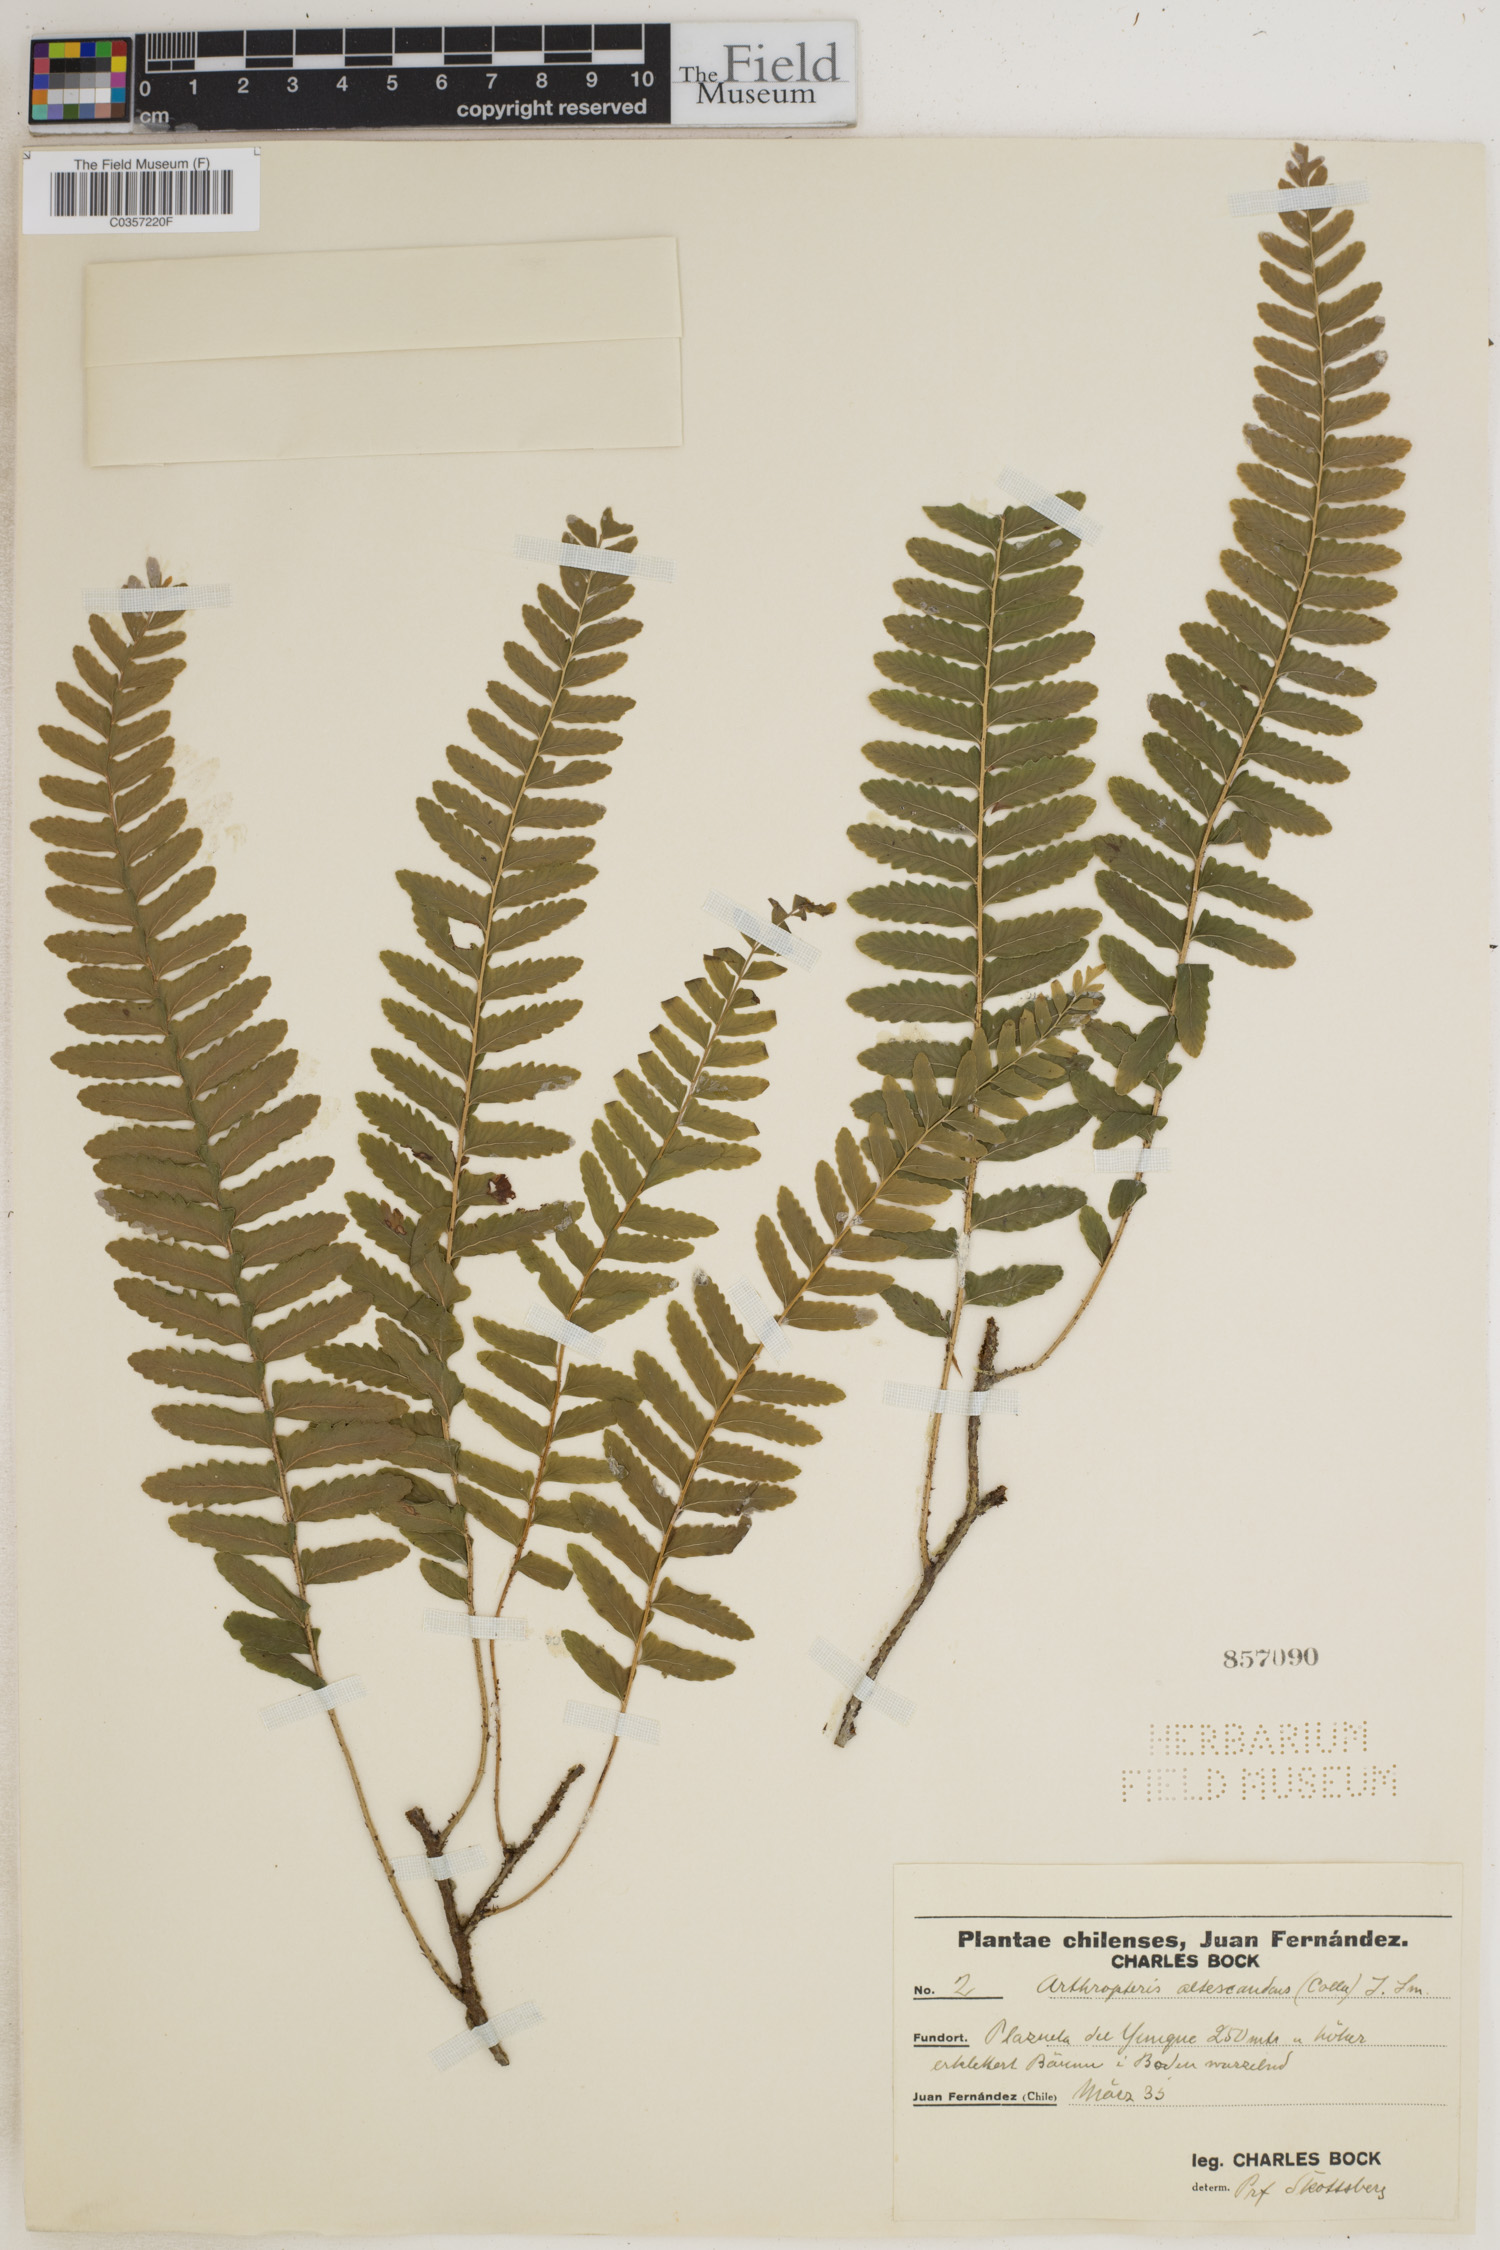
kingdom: Plantae
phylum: Tracheophyta
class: Polypodiopsida
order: Polypodiales
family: Tectariaceae
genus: Arthropteris
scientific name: Arthropteris altescandens
